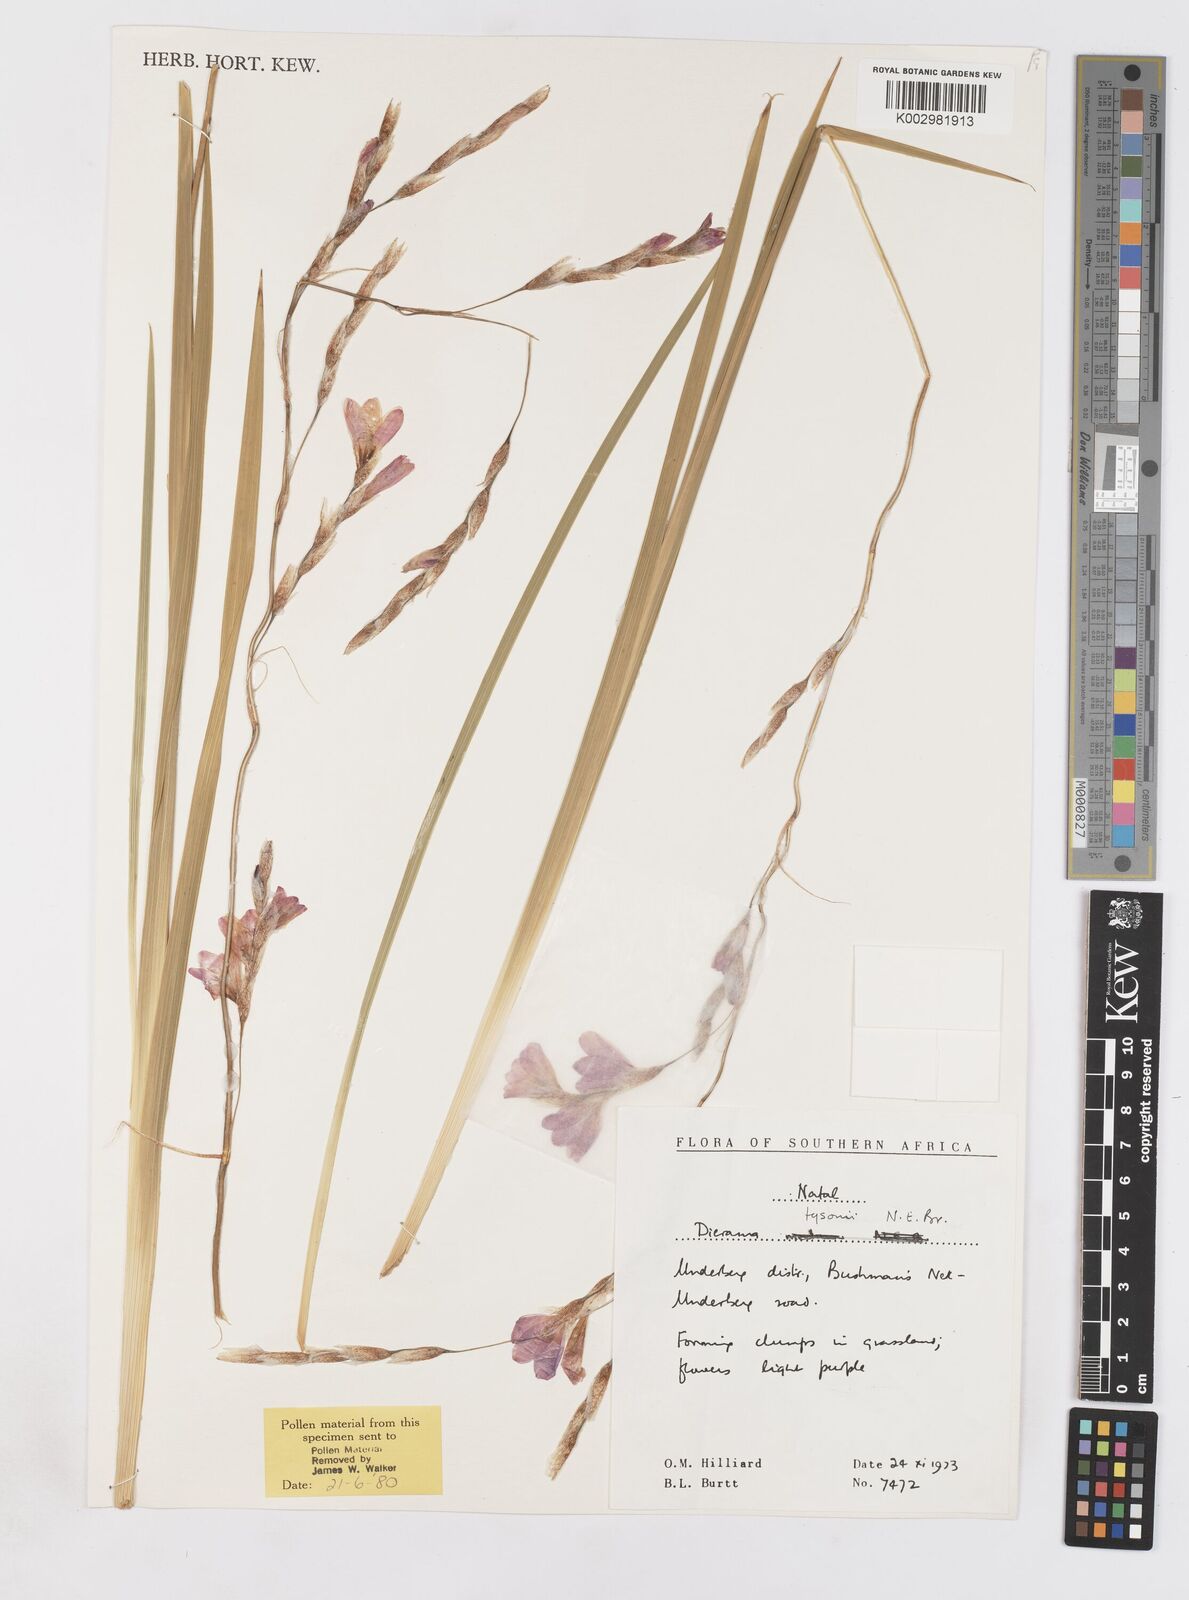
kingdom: Plantae
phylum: Tracheophyta
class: Liliopsida
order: Asparagales
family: Iridaceae
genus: Dierama
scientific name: Dierama tysonii
